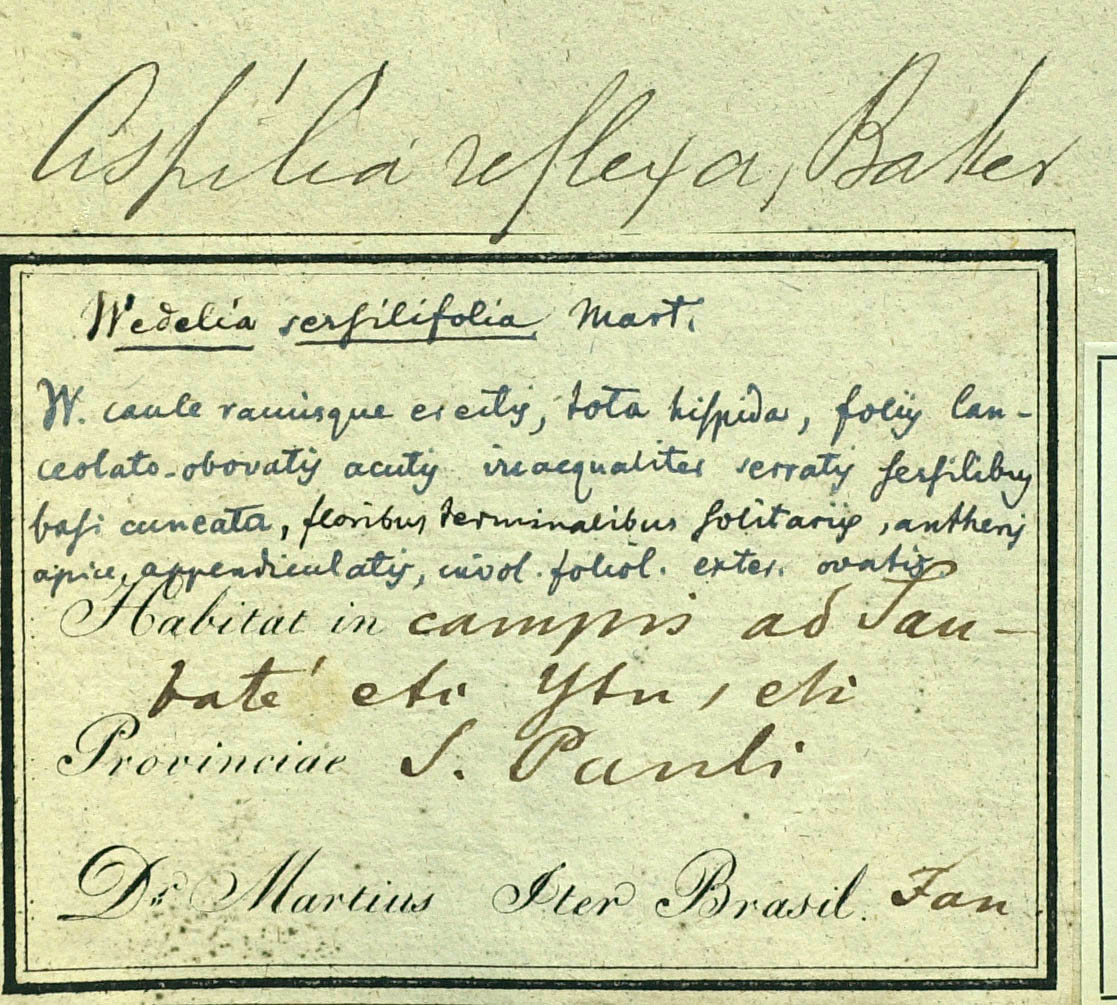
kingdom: Plantae
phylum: Tracheophyta
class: Magnoliopsida
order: Asterales
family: Asteraceae
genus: Wedelia
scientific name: Wedelia reflexa
